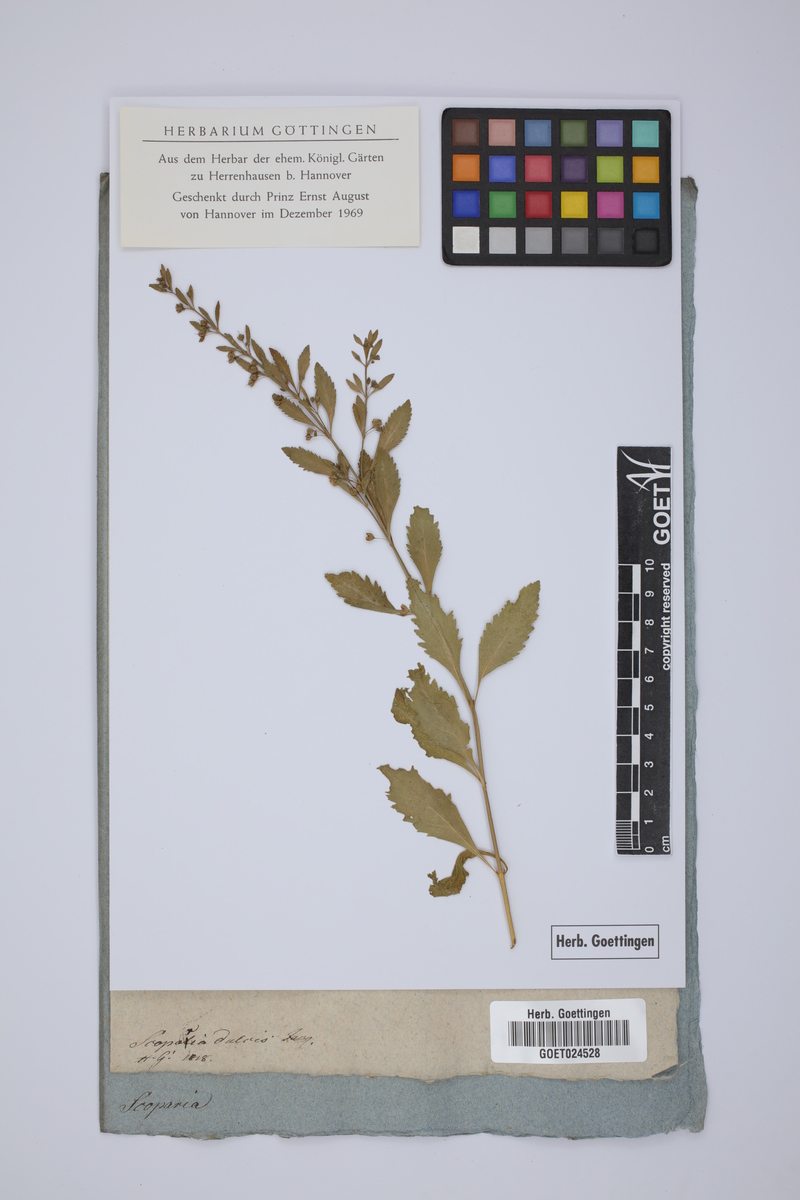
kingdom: Plantae
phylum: Tracheophyta
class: Magnoliopsida
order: Lamiales
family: Plantaginaceae
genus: Scoparia
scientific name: Scoparia dulcis
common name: Scoparia-weed
